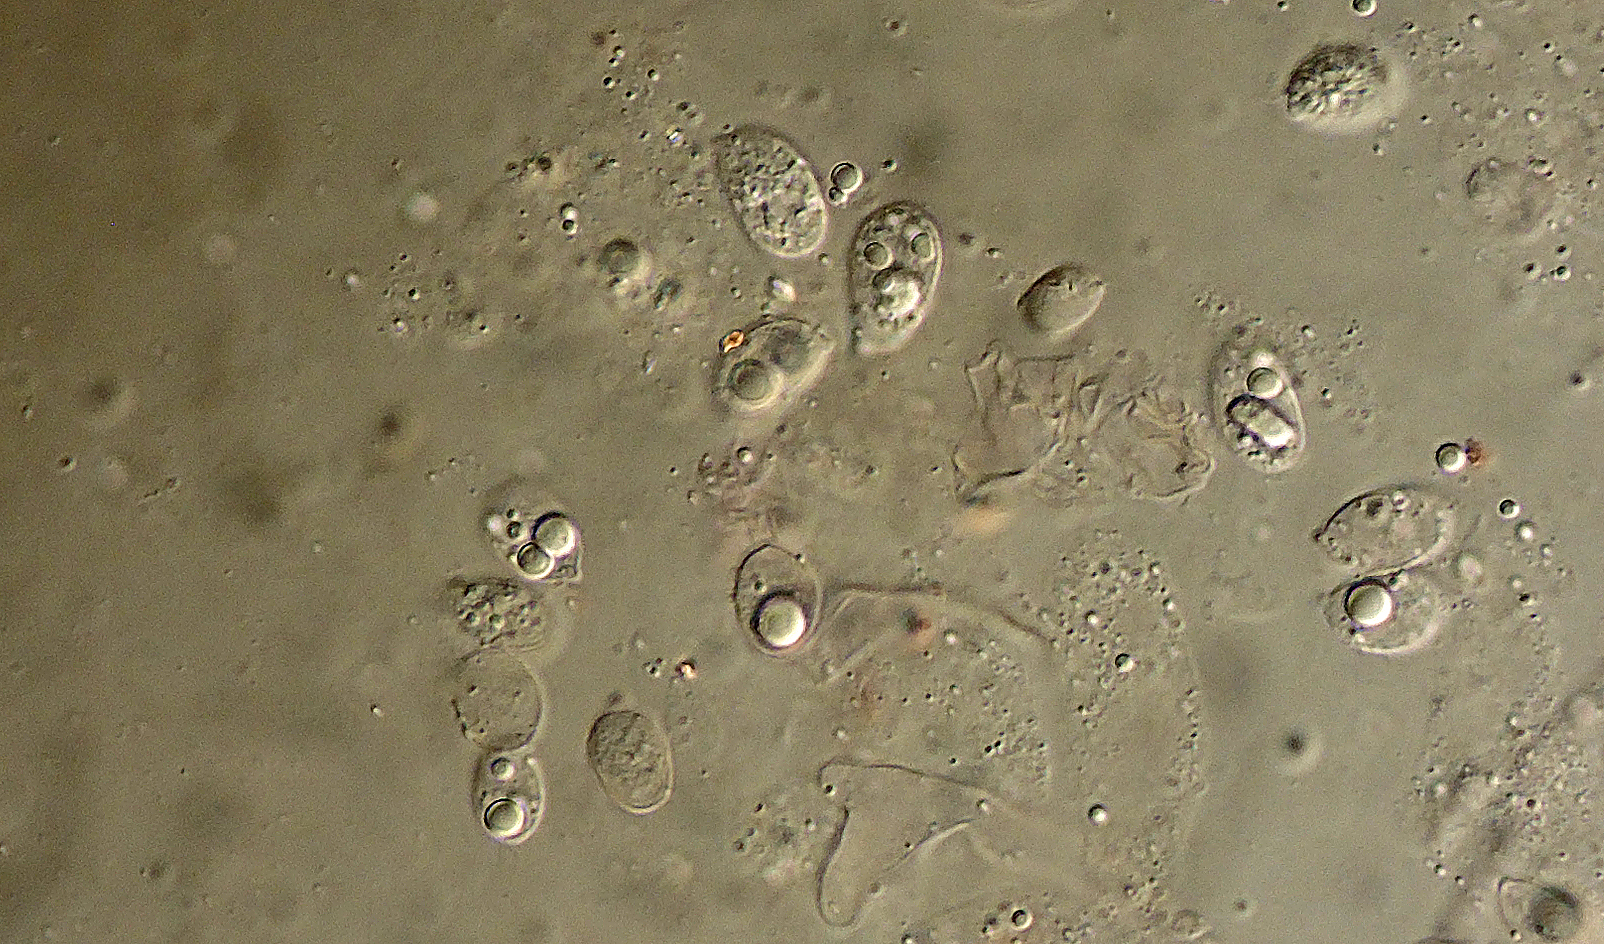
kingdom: Fungi
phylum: Basidiomycota
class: Agaricomycetes
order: Agaricales
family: Mycenaceae
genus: Mycena
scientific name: Mycena
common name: huesvamp
